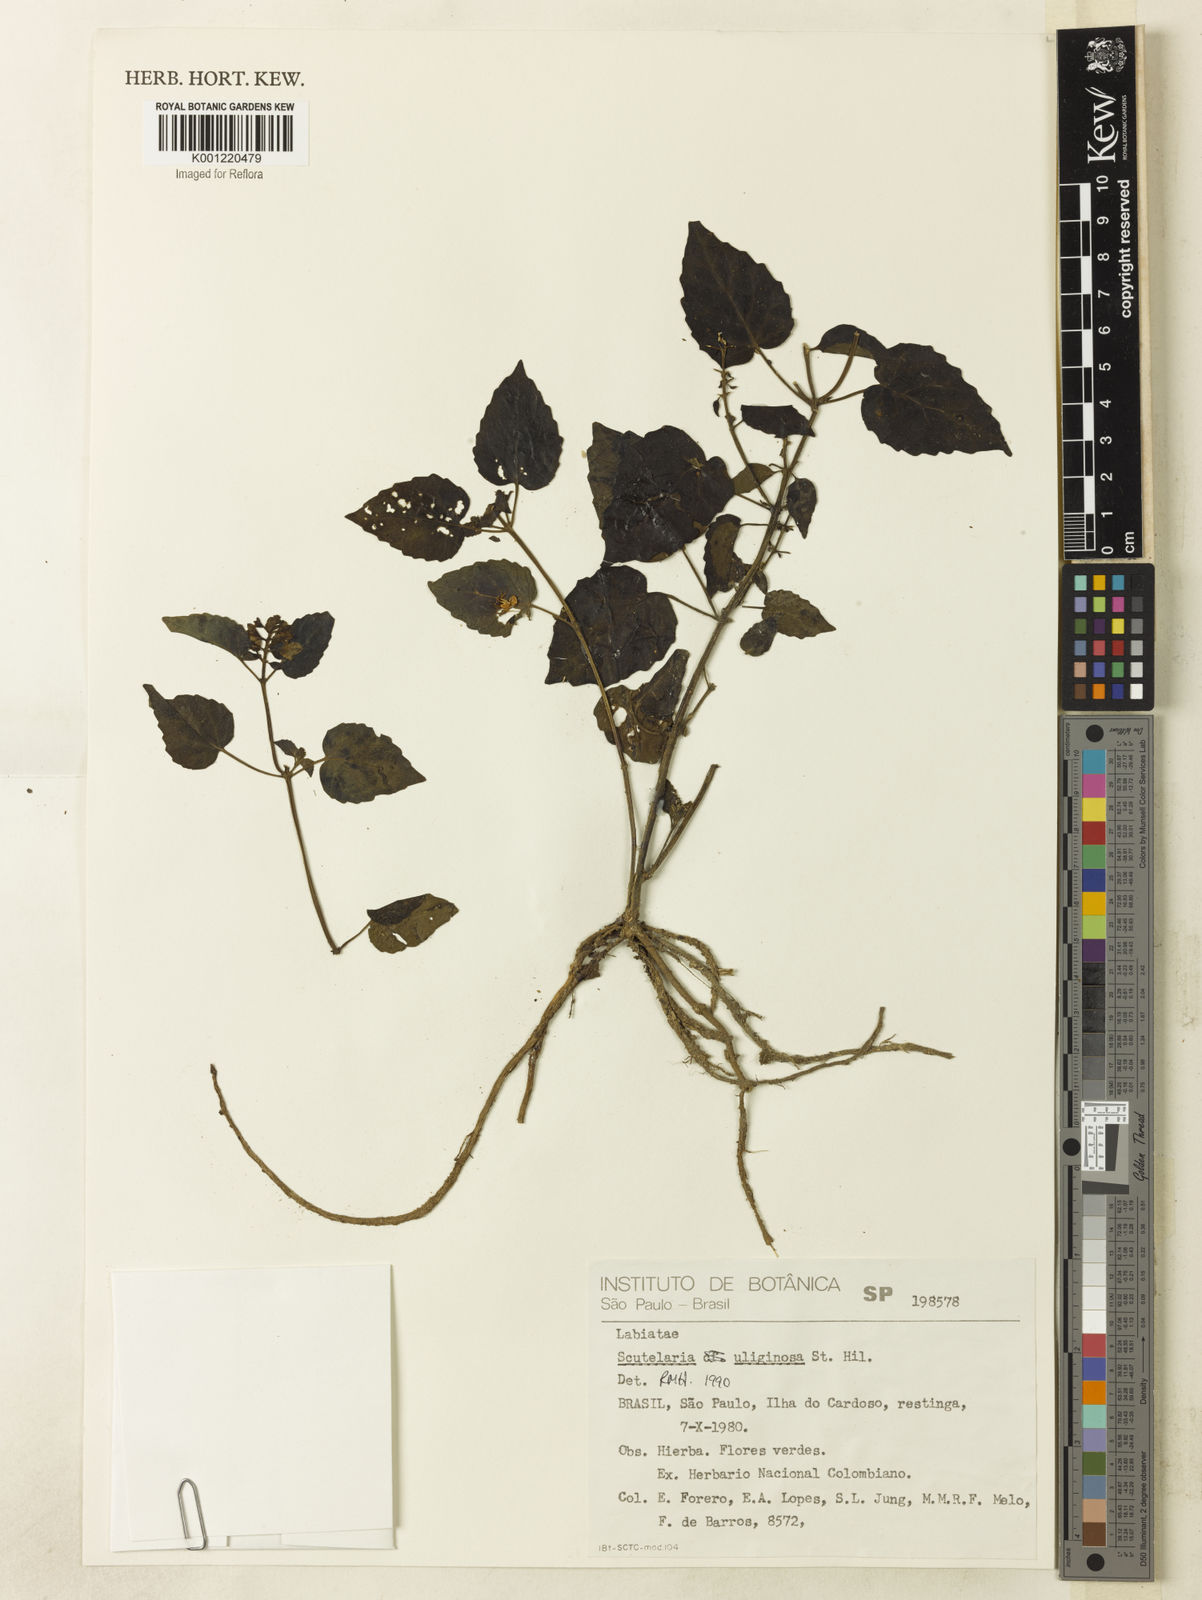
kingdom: Plantae
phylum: Tracheophyta
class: Magnoliopsida
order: Lamiales
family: Lamiaceae
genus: Scutellaria
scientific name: Scutellaria uliginosa
